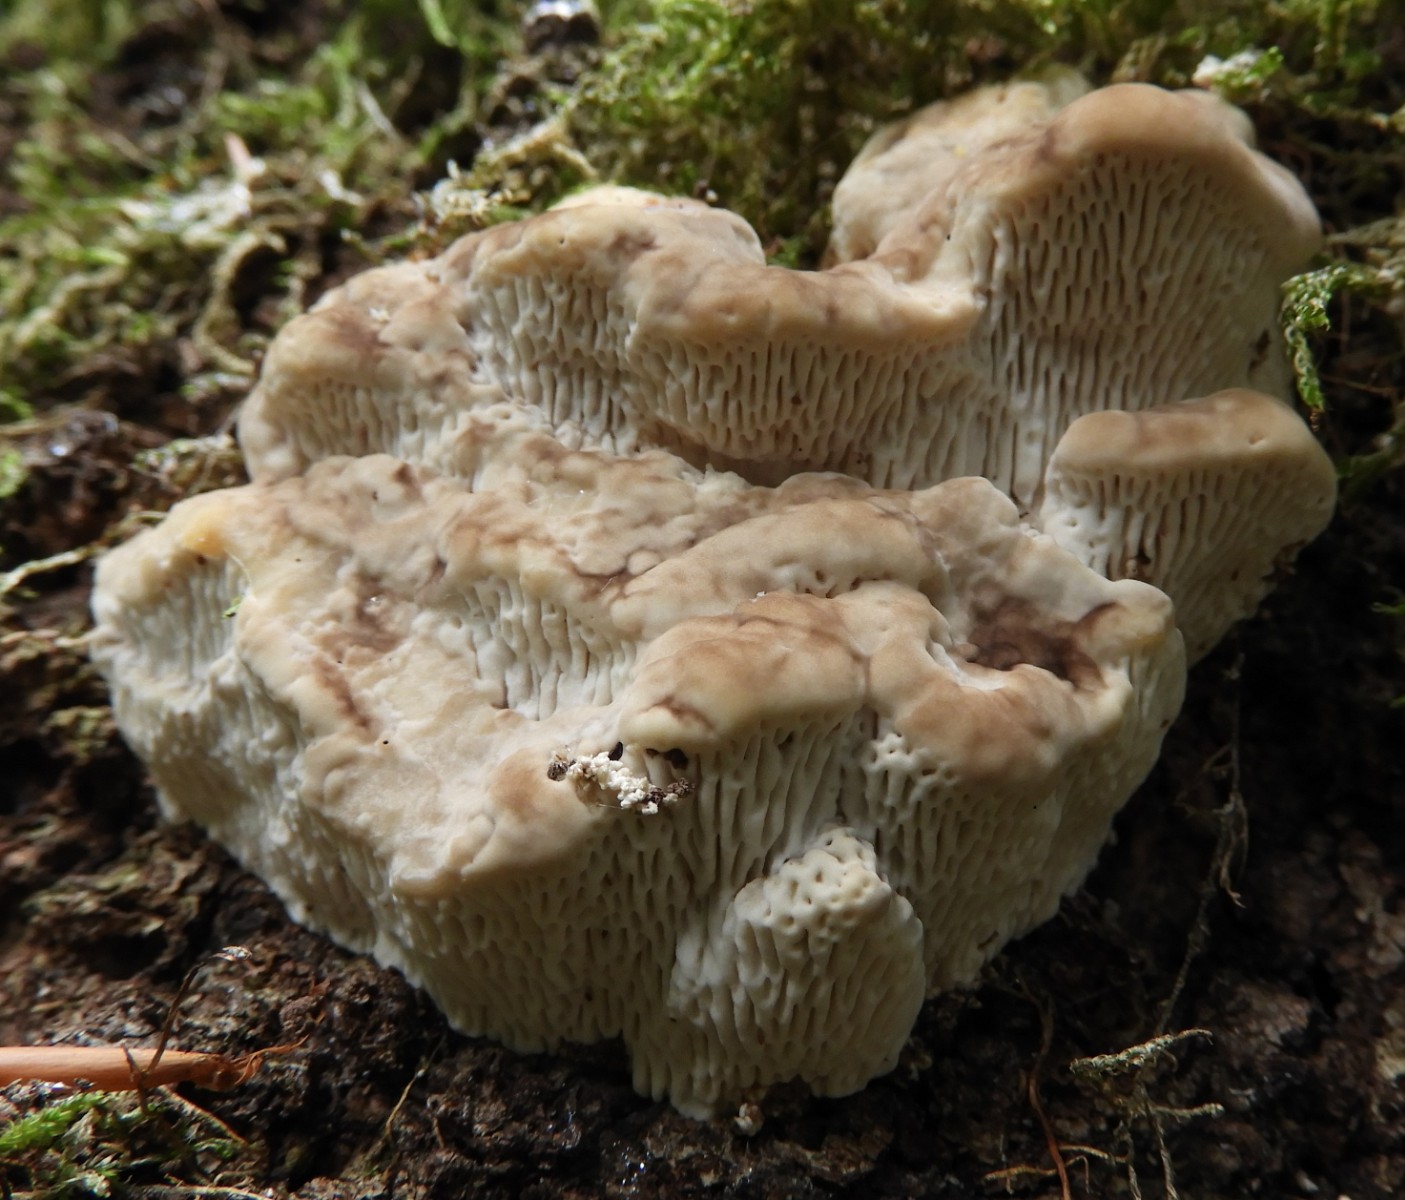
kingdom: Fungi
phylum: Basidiomycota
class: Agaricomycetes
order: Polyporales
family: Fomitopsidaceae
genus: Daedalea
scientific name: Daedalea quercina
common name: ege-labyrintsvamp
